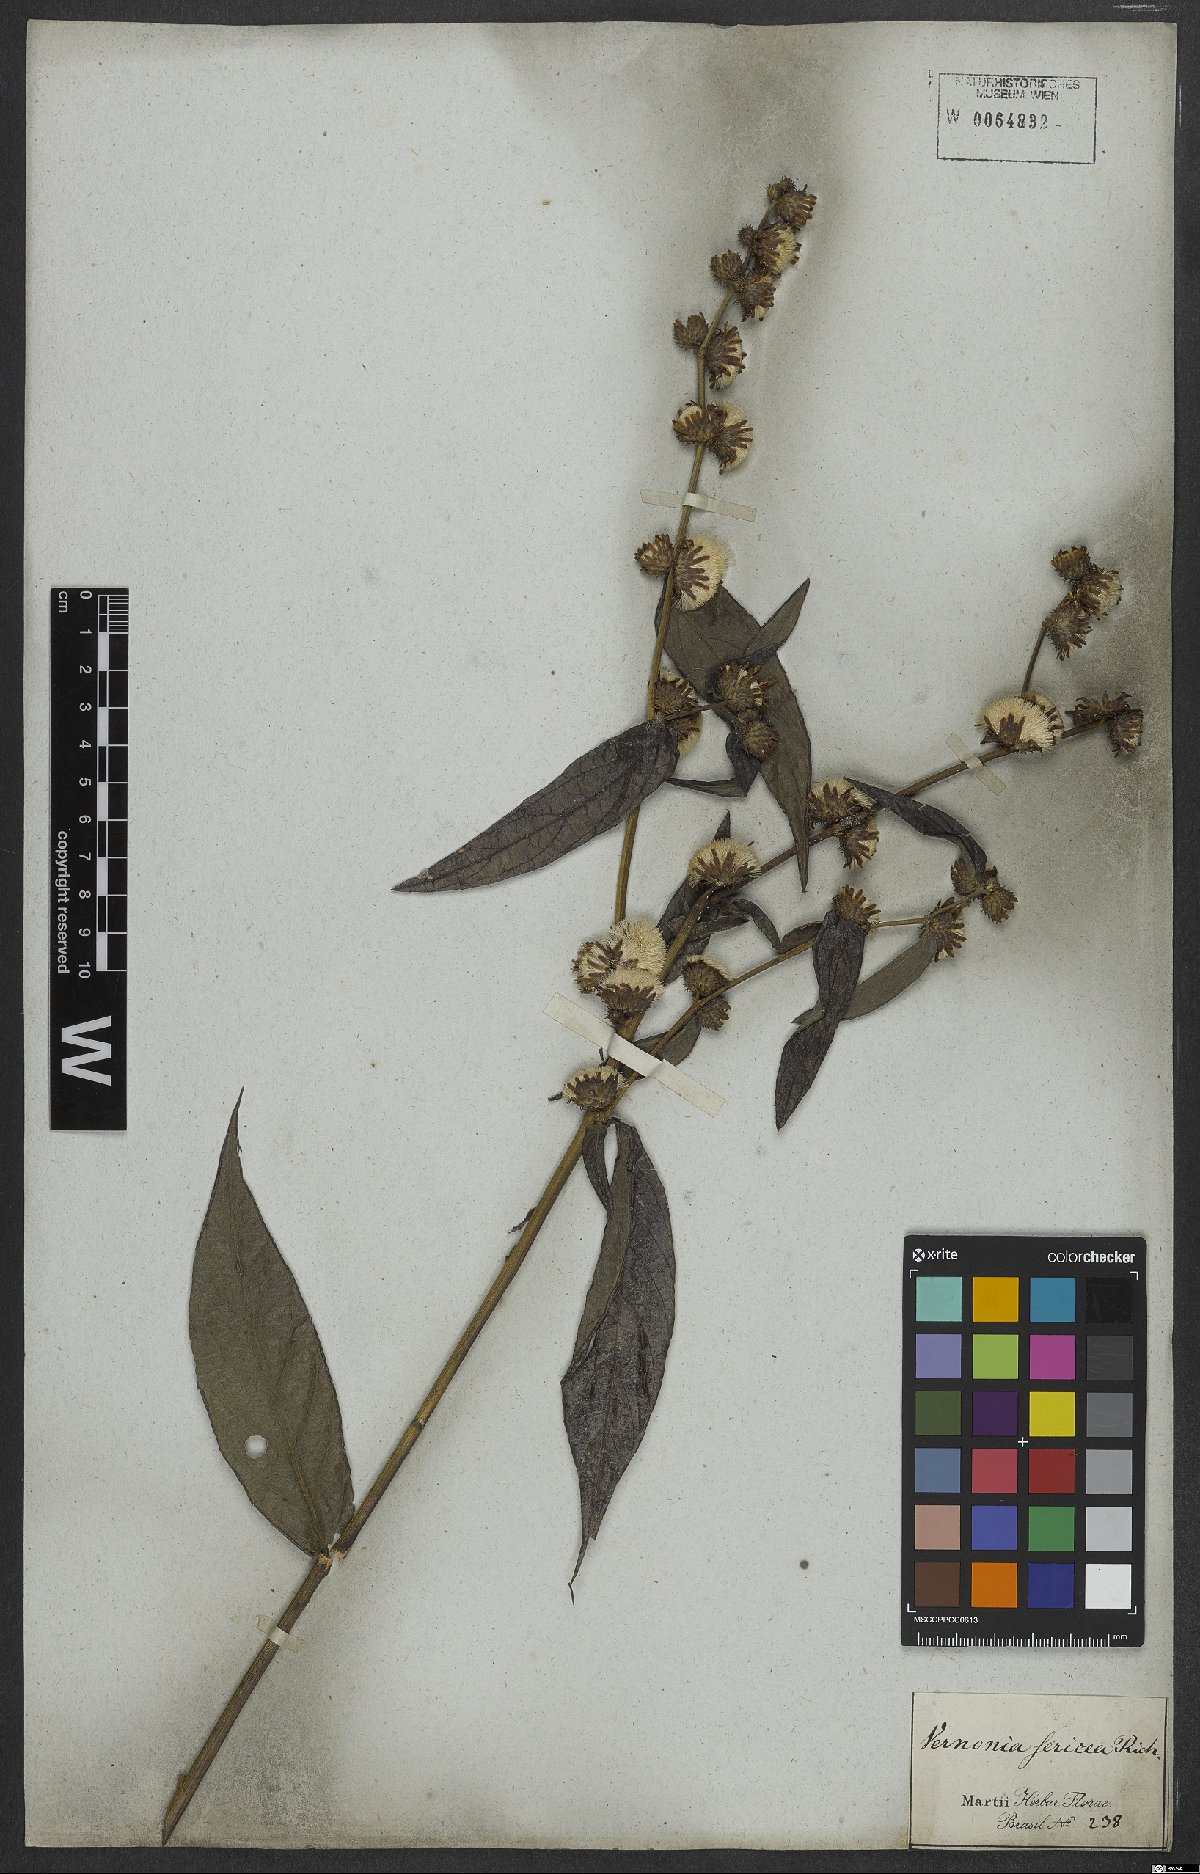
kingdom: Plantae
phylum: Tracheophyta
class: Magnoliopsida
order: Asterales
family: Asteraceae
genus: Lepidaploa
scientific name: Lepidaploa sericea
